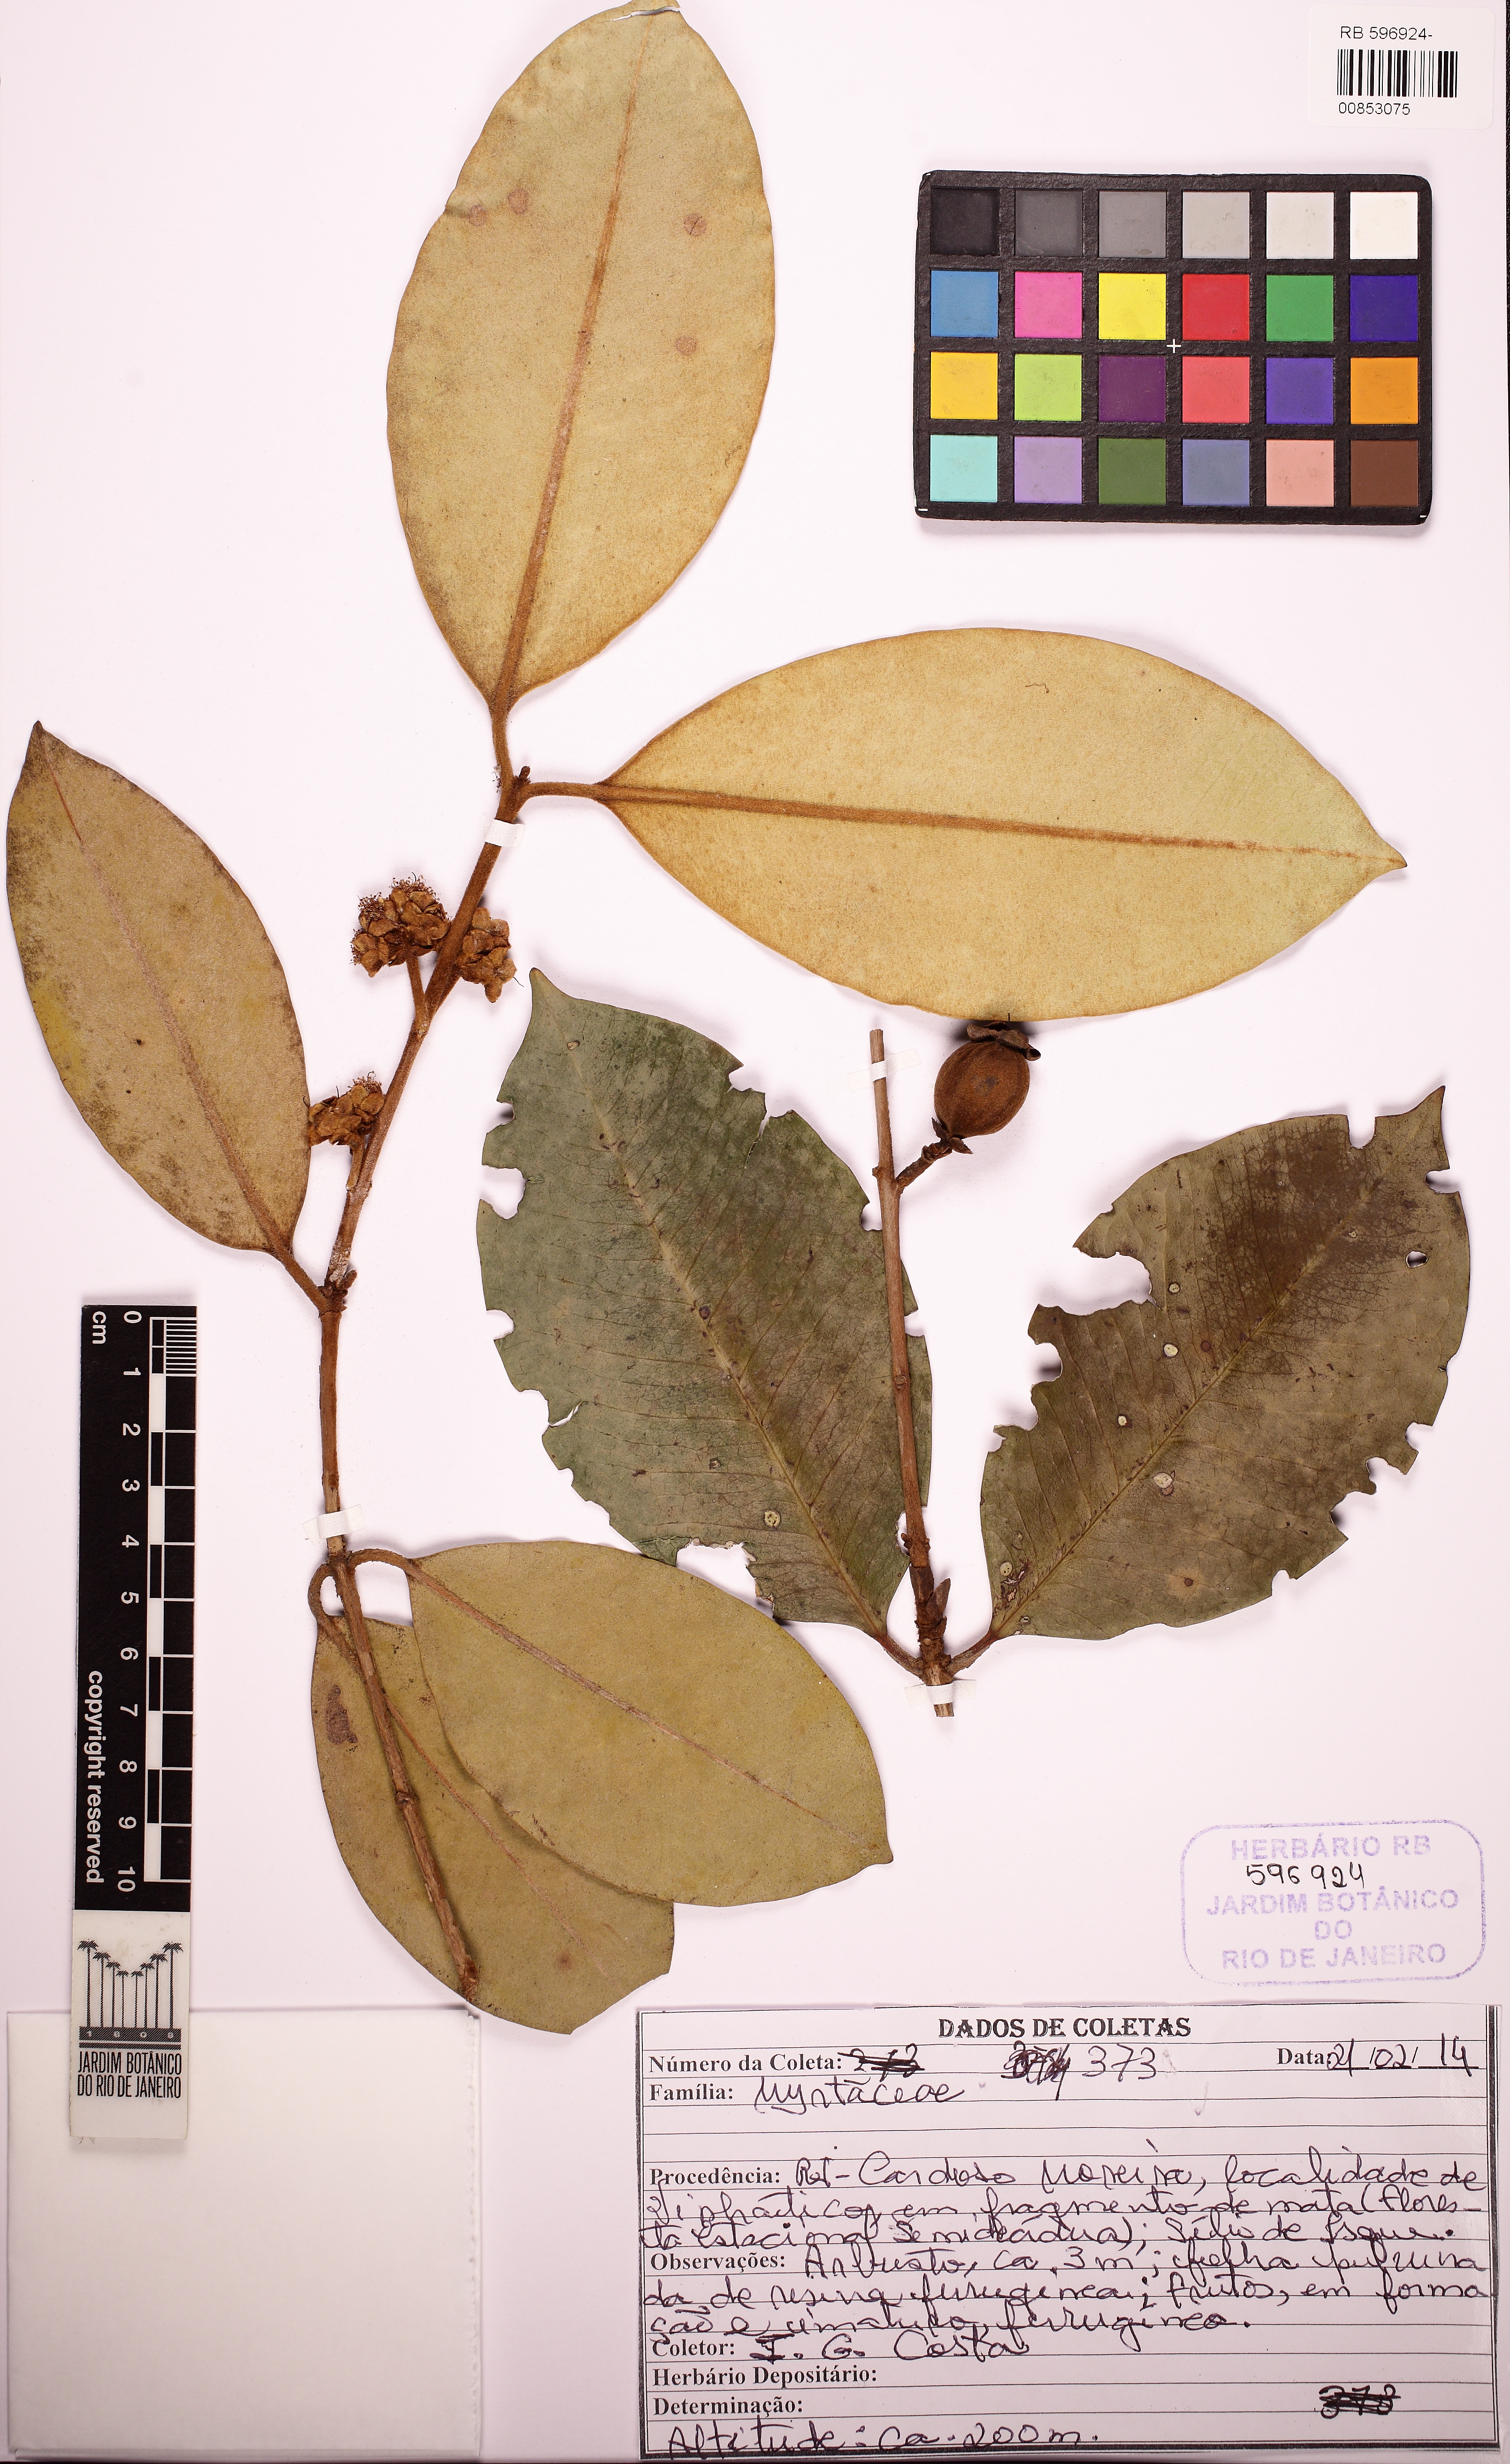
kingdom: Plantae
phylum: Tracheophyta
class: Magnoliopsida
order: Myrtales
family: Myrtaceae
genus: Eugenia
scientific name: Eugenia macrosperma
